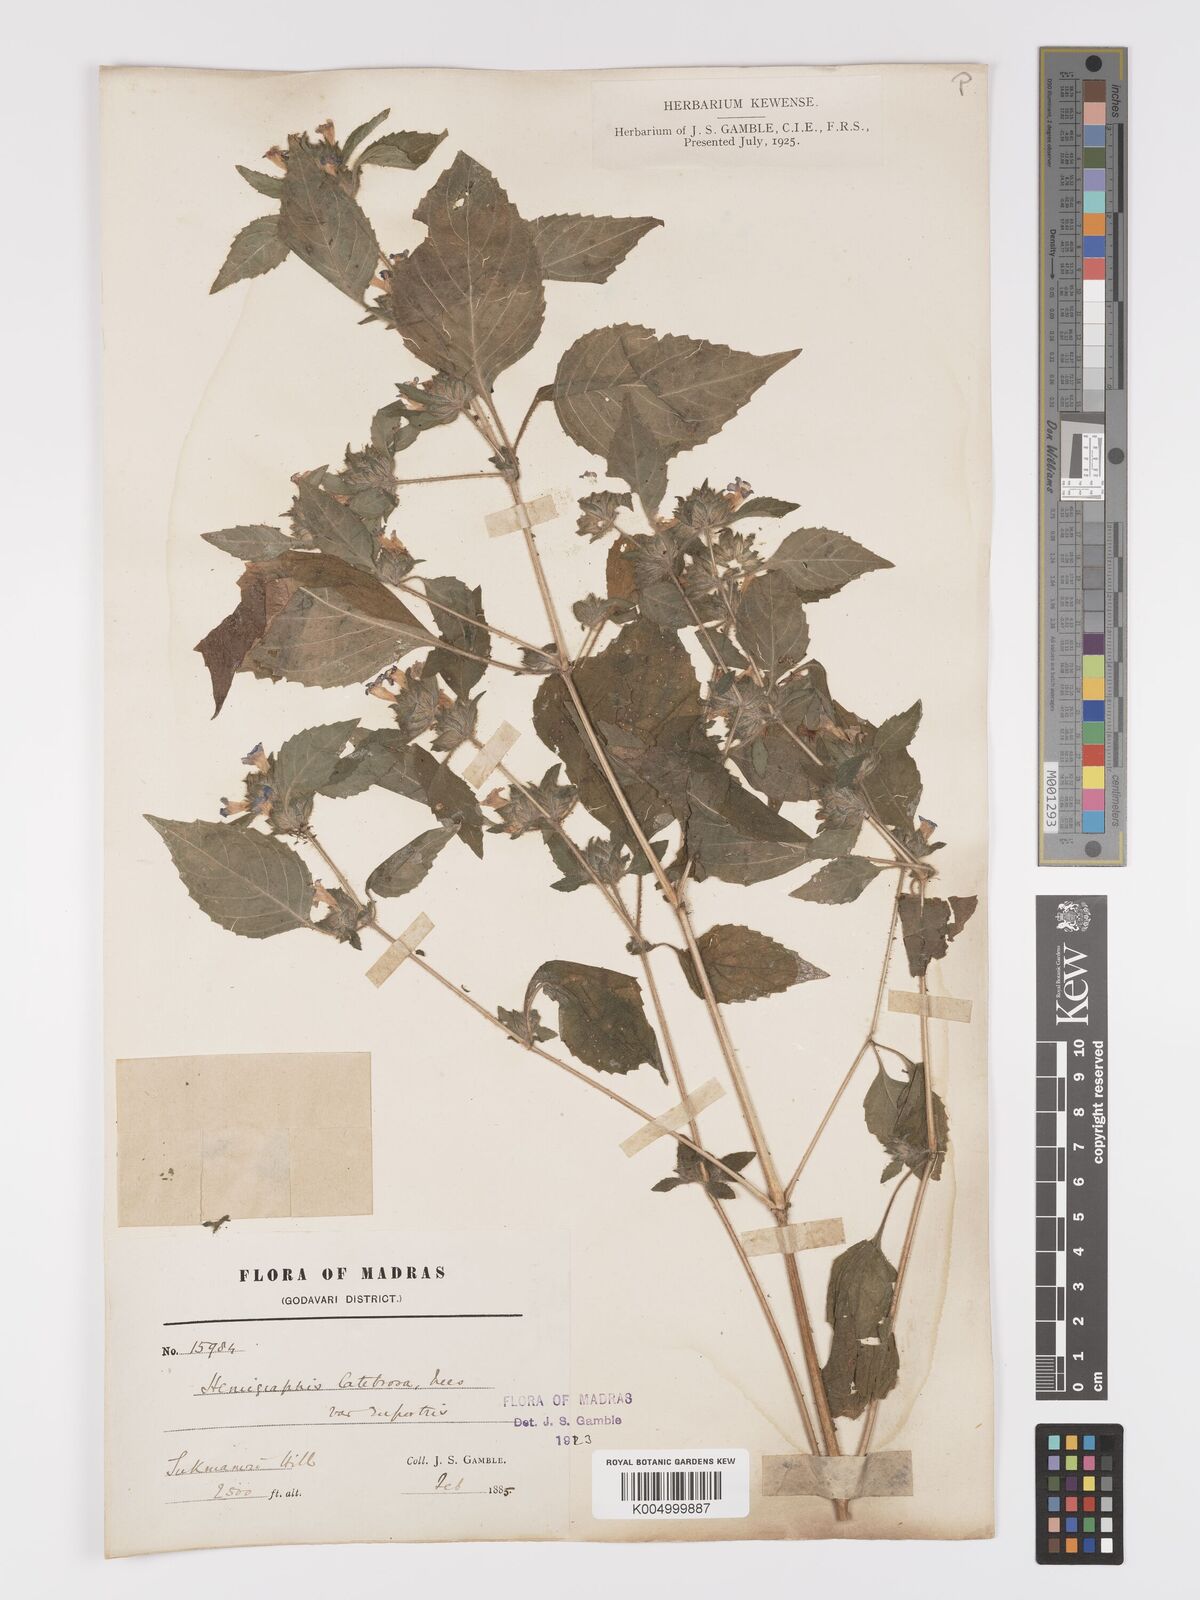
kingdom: Plantae
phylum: Tracheophyta
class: Magnoliopsida
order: Lamiales
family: Acanthaceae
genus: Strobilanthes
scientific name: Strobilanthes
